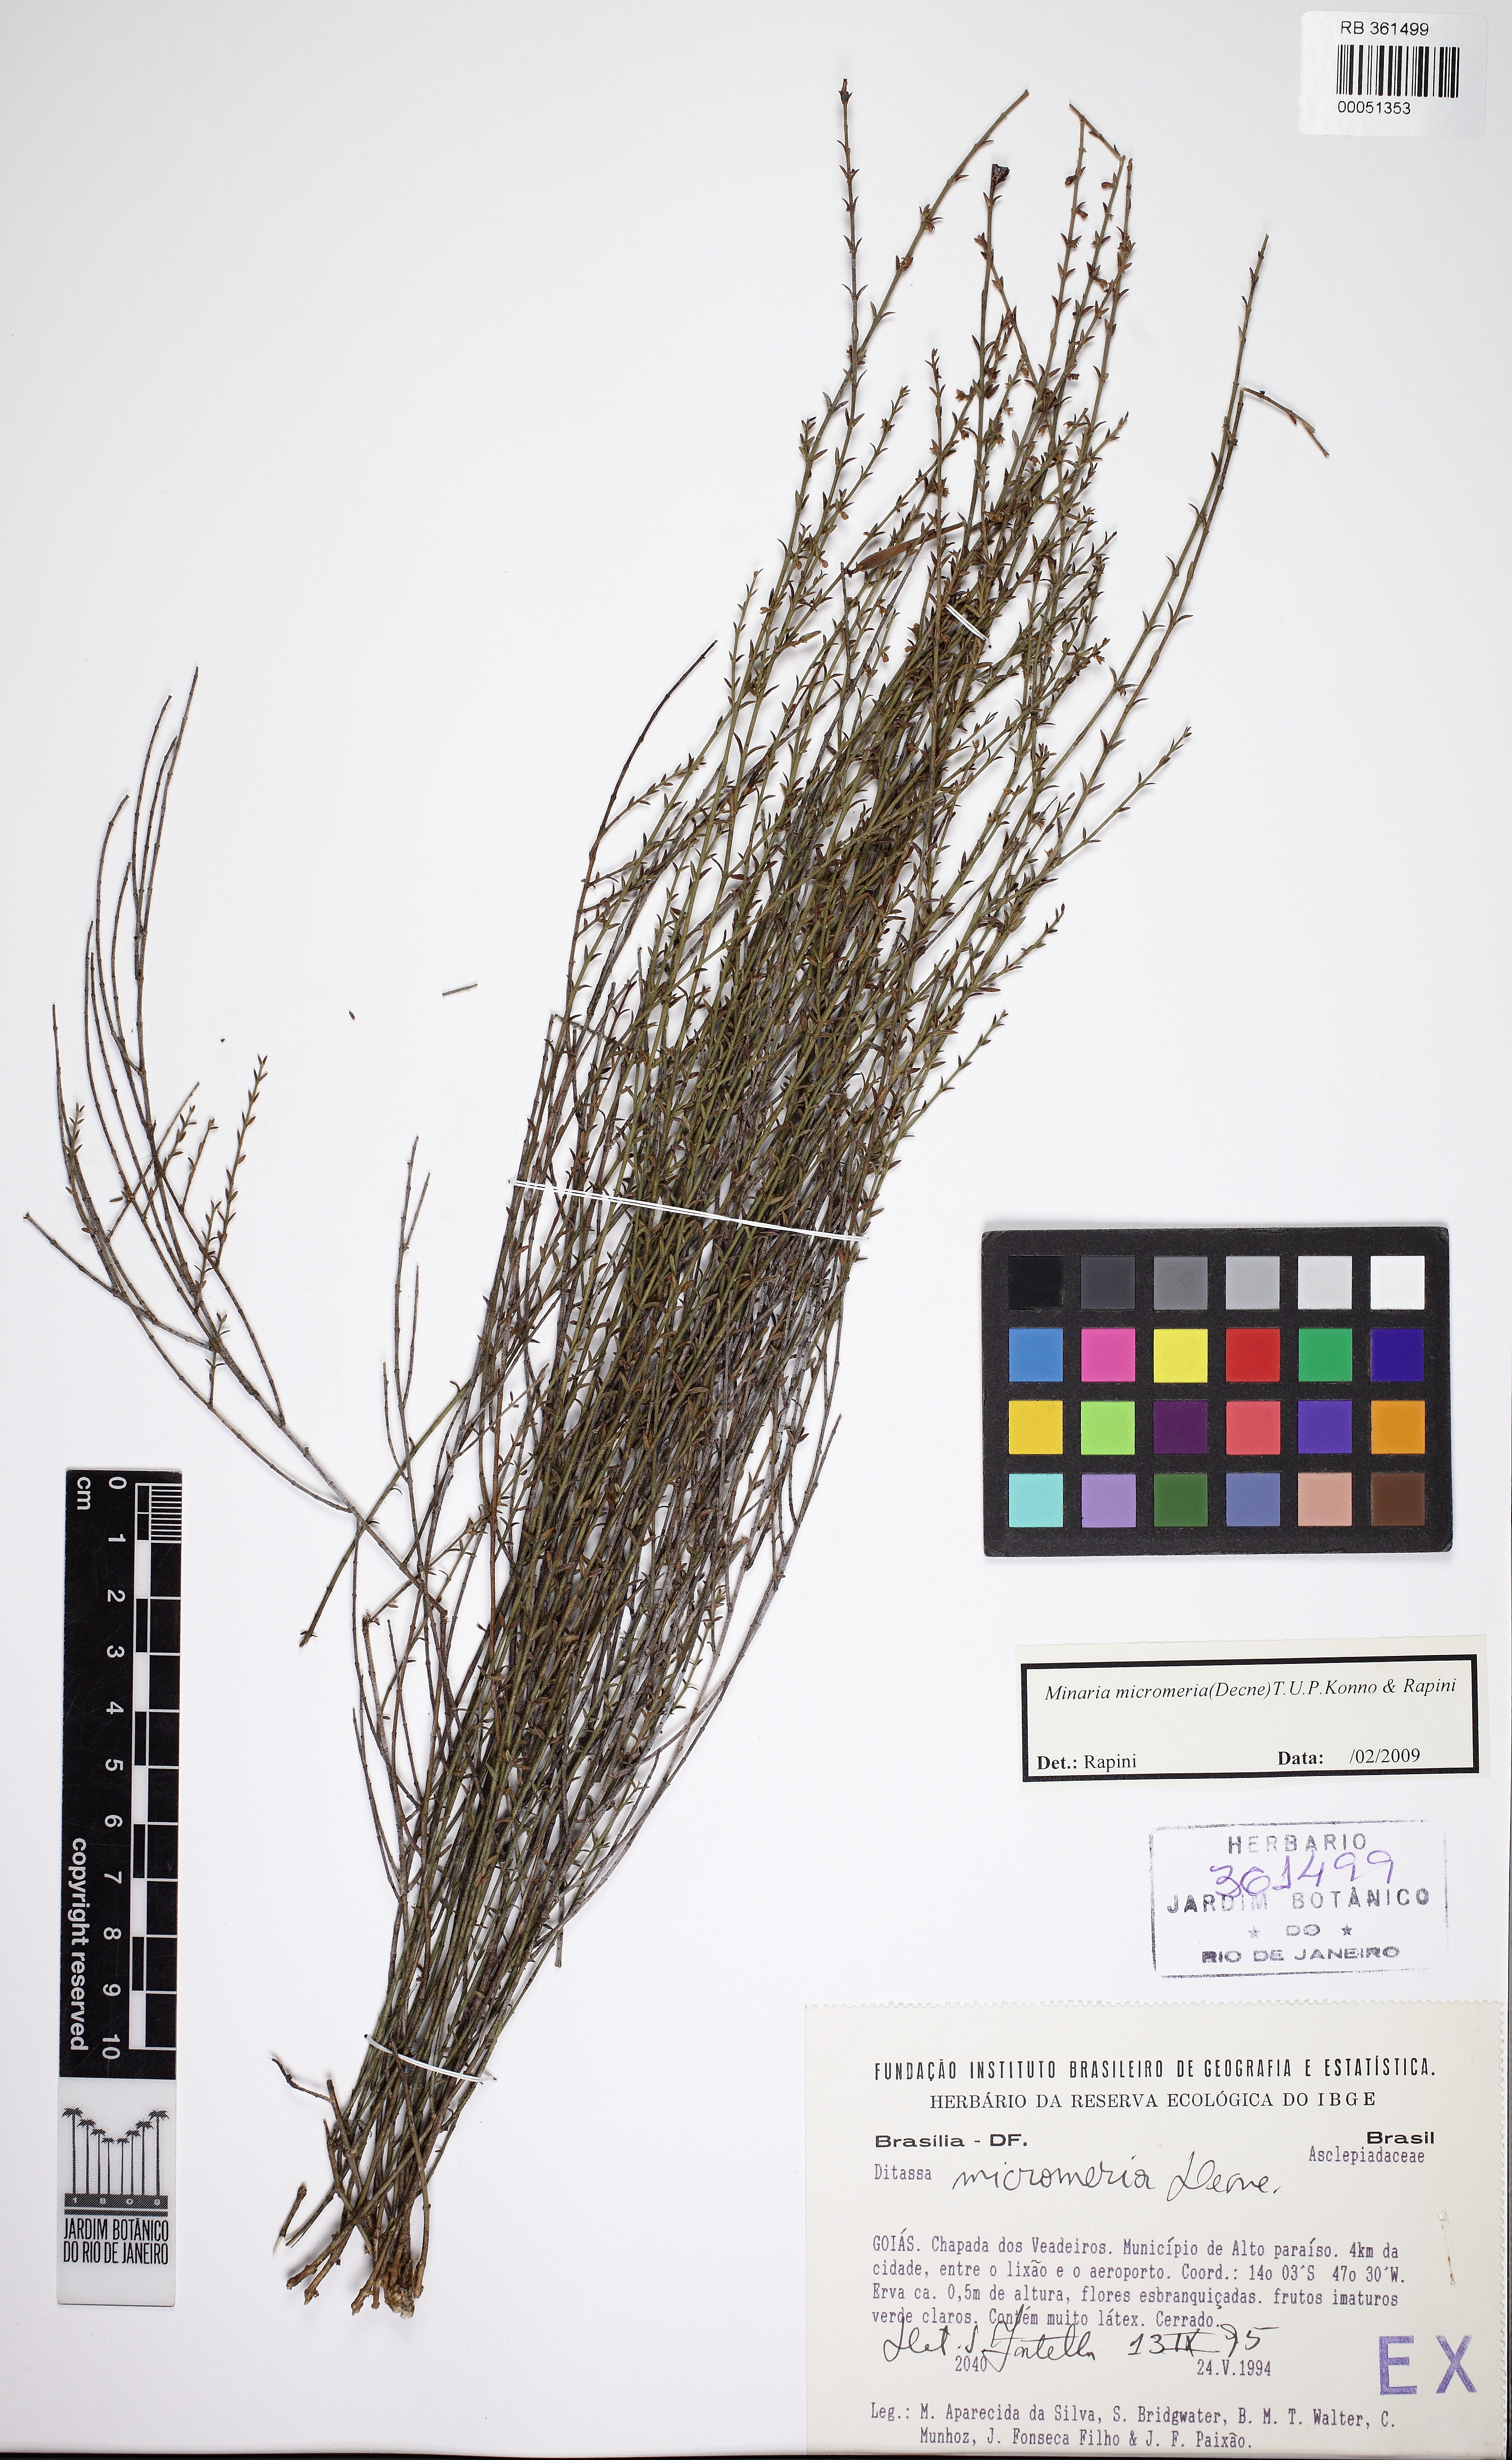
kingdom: Plantae
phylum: Tracheophyta
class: Magnoliopsida
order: Gentianales
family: Apocynaceae
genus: Minaria
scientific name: Minaria micromeria
